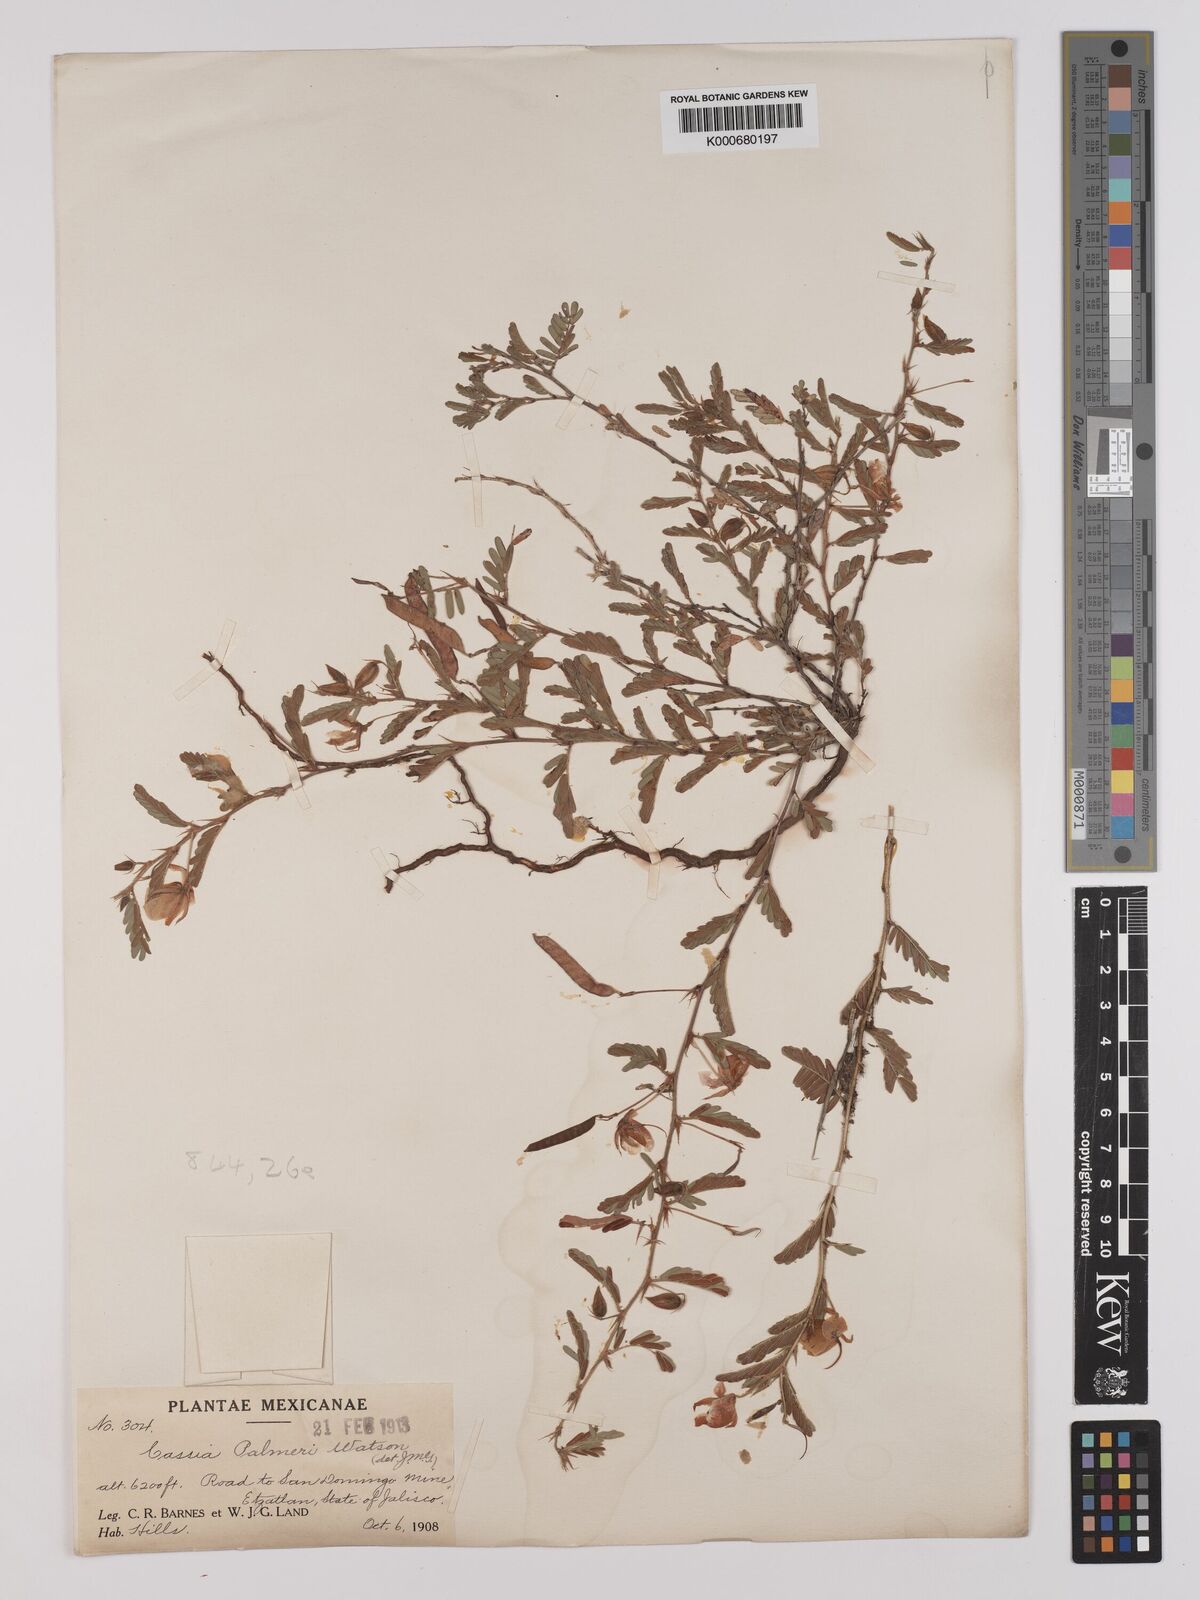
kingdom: Plantae
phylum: Tracheophyta
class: Magnoliopsida
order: Fabales
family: Fabaceae
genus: Chamaecrista
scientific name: Chamaecrista serpens
